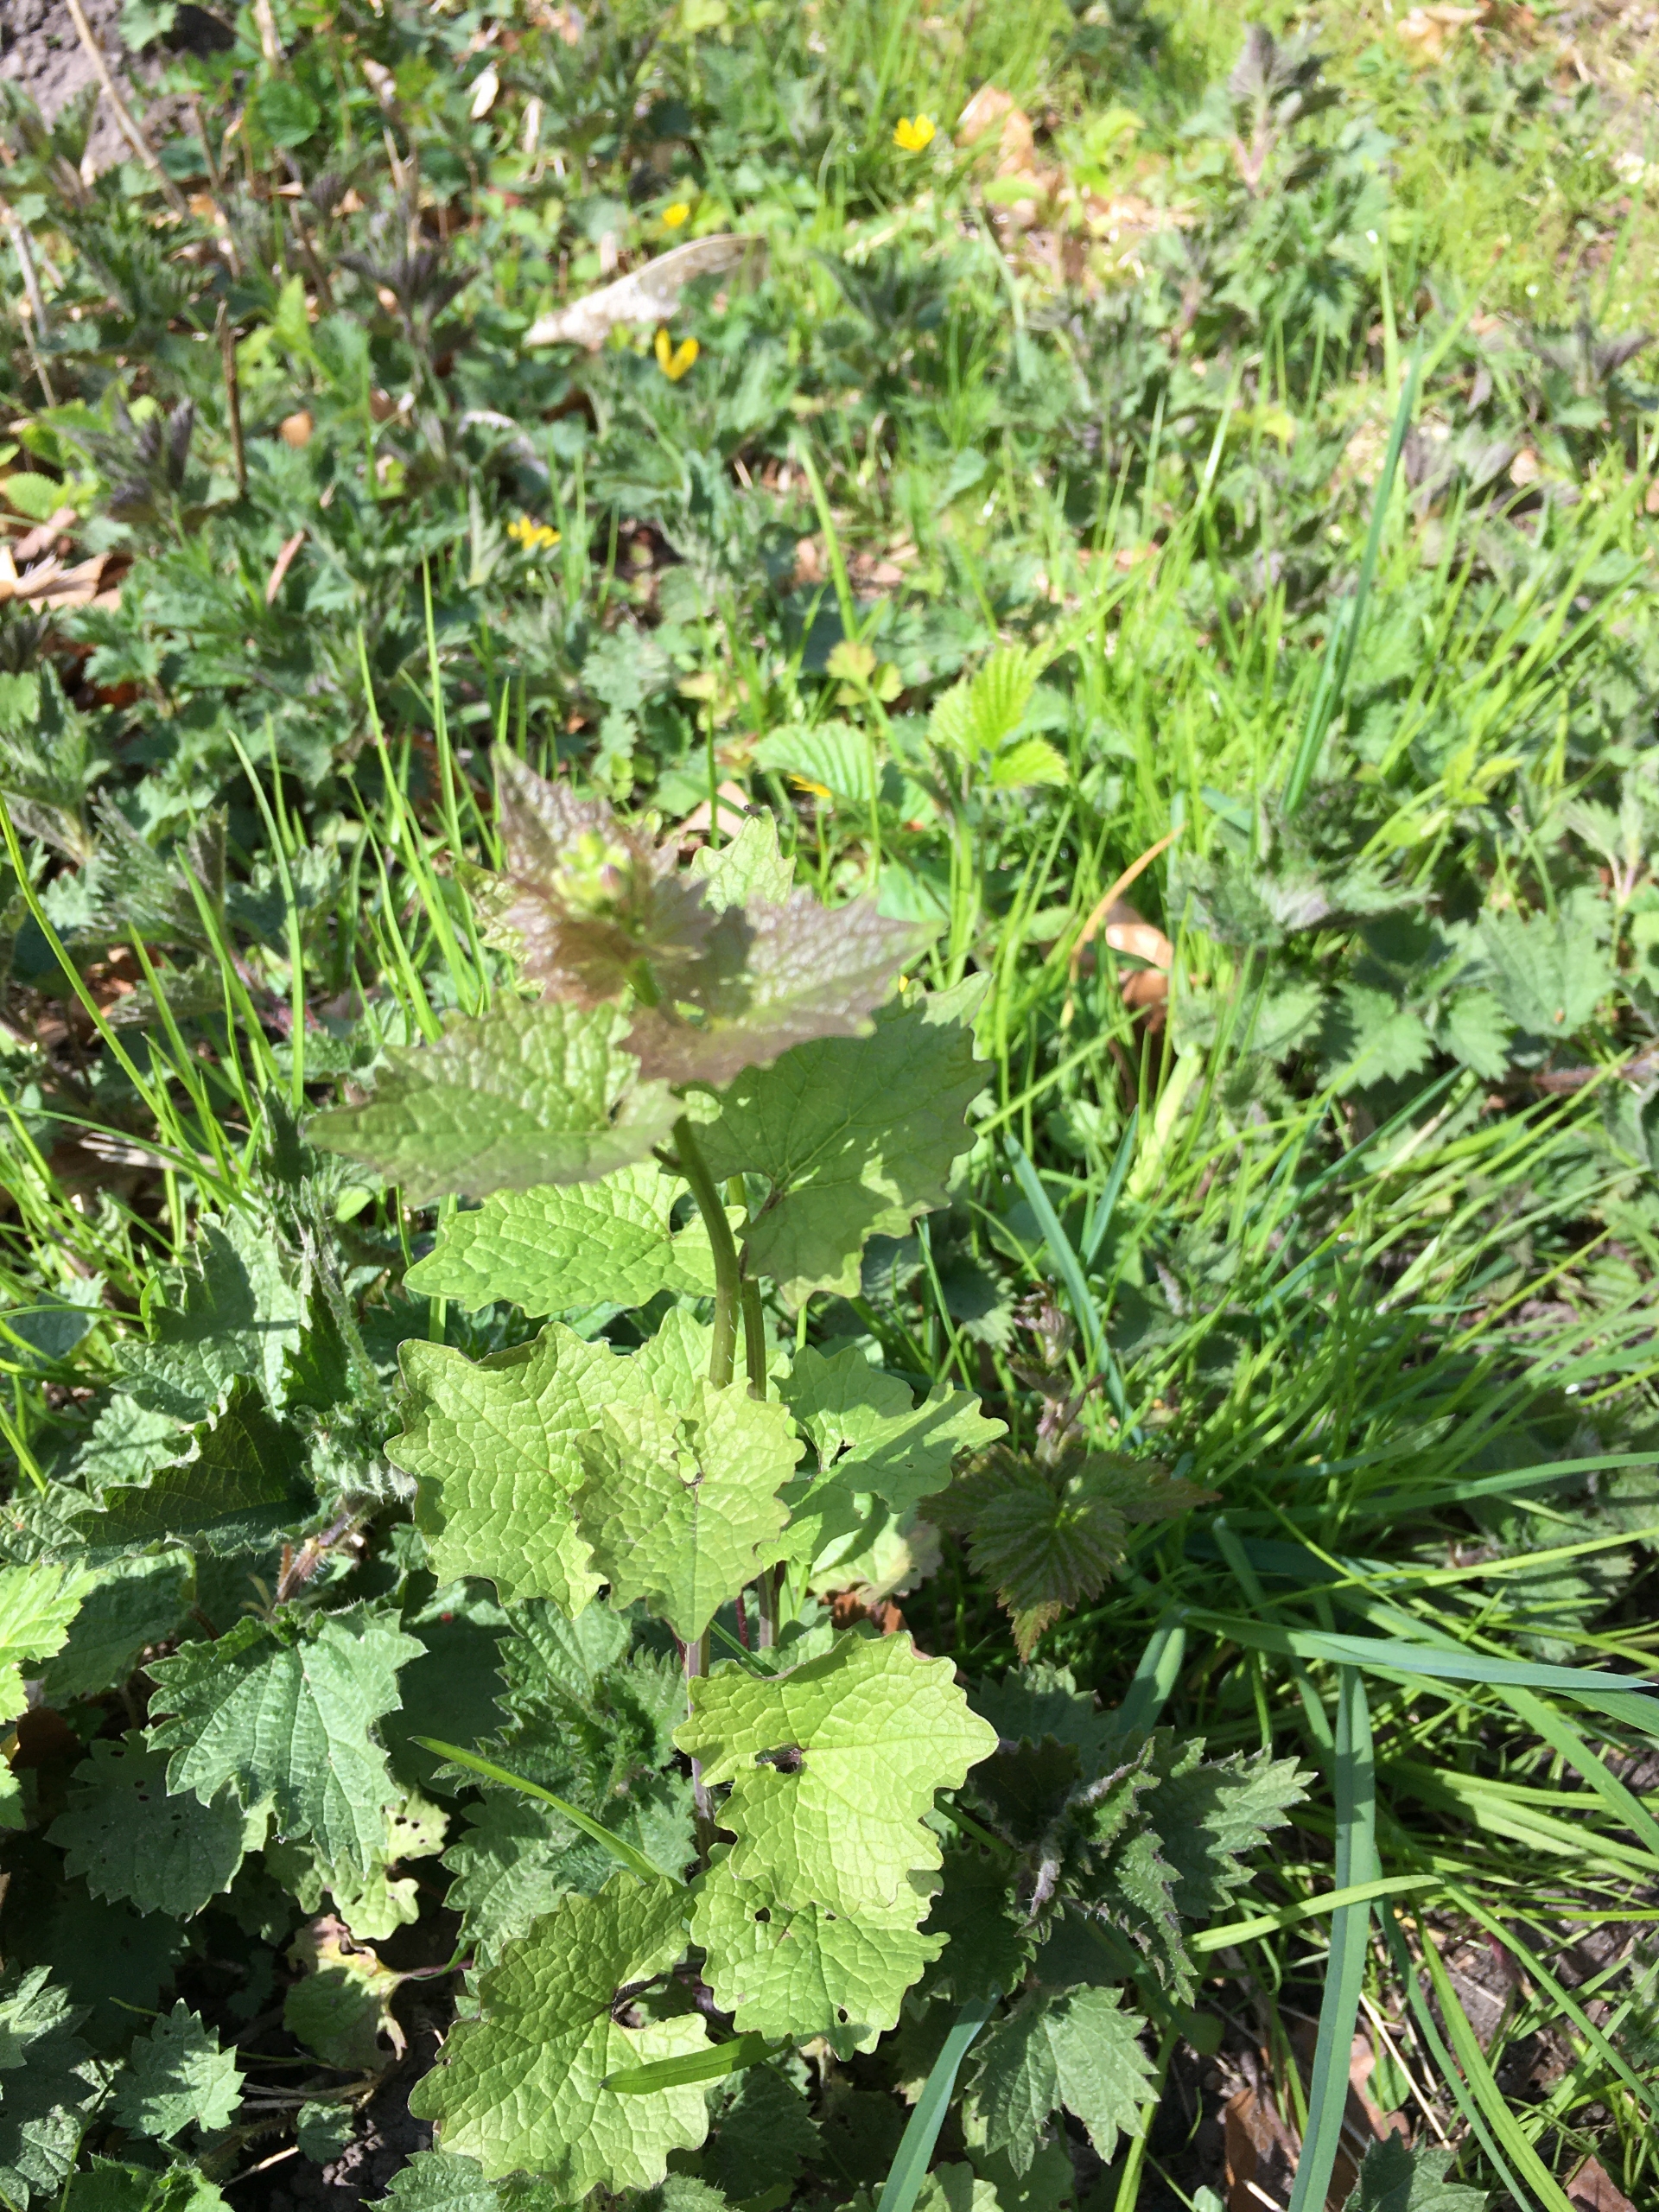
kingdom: Plantae
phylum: Tracheophyta
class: Magnoliopsida
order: Brassicales
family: Brassicaceae
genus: Alliaria
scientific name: Alliaria petiolata
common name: Løgkarse
